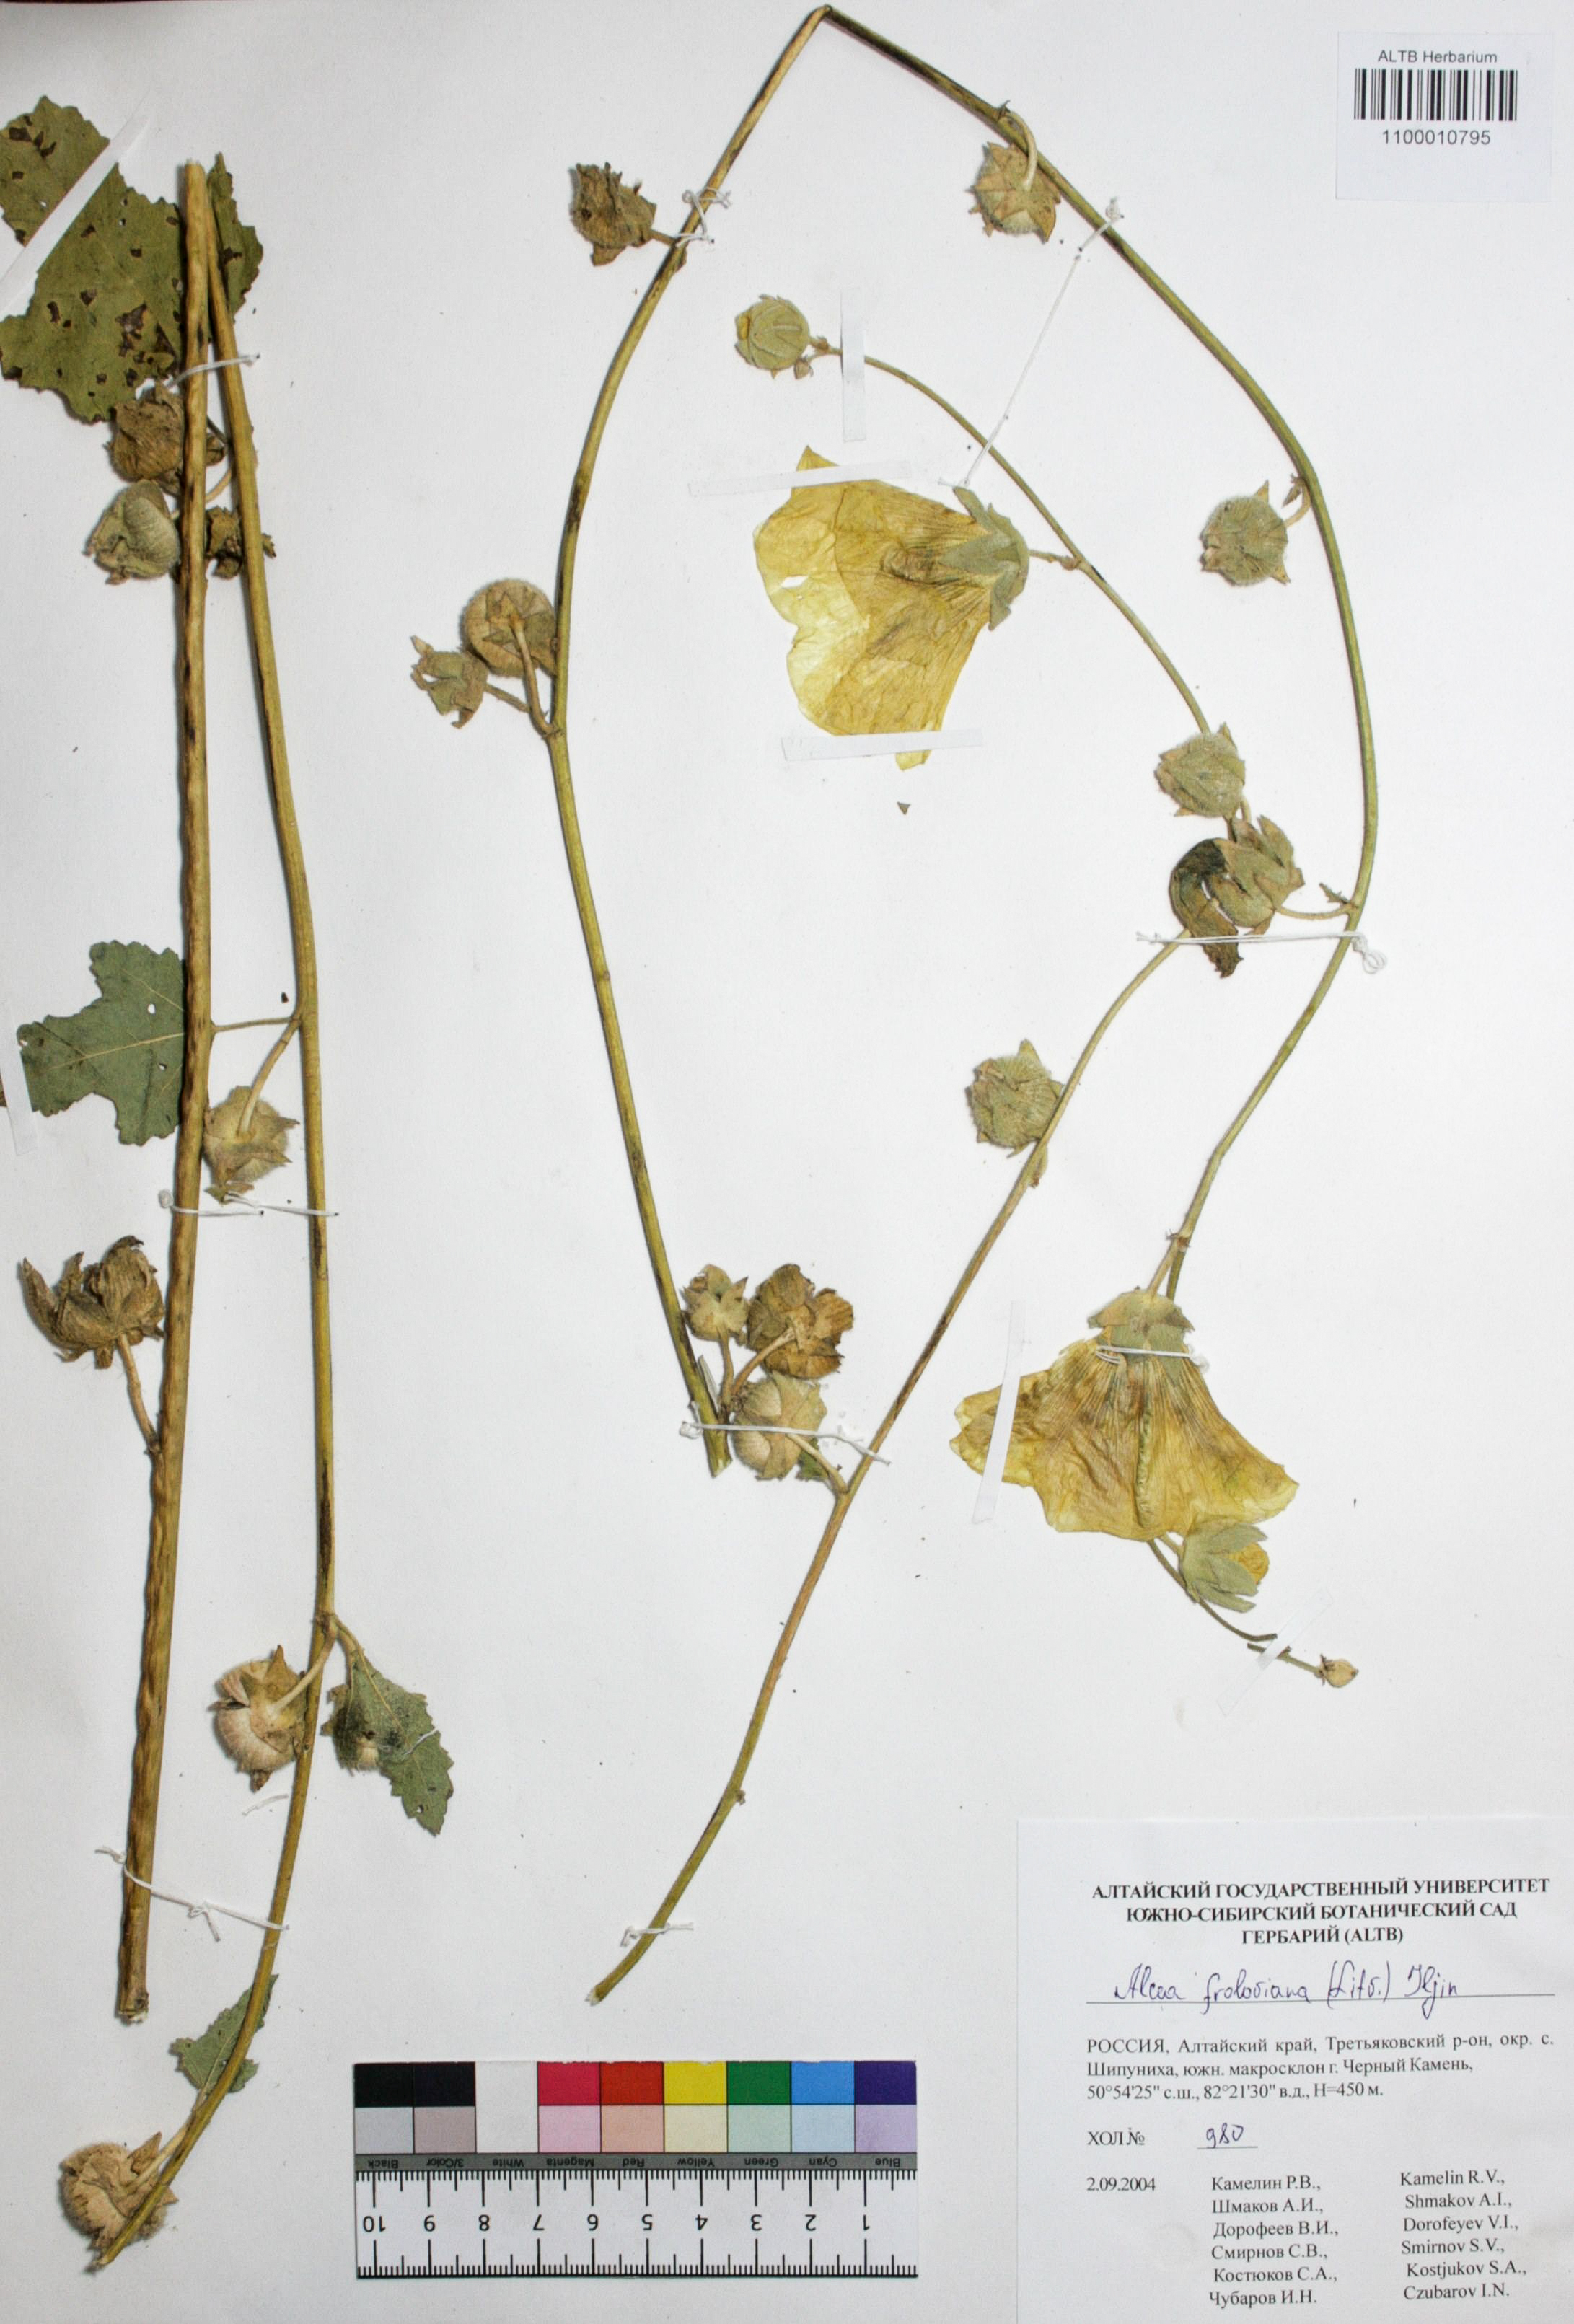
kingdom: Plantae
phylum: Tracheophyta
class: Magnoliopsida
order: Malvales
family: Malvaceae
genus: Alcea
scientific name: Alcea froloviana
